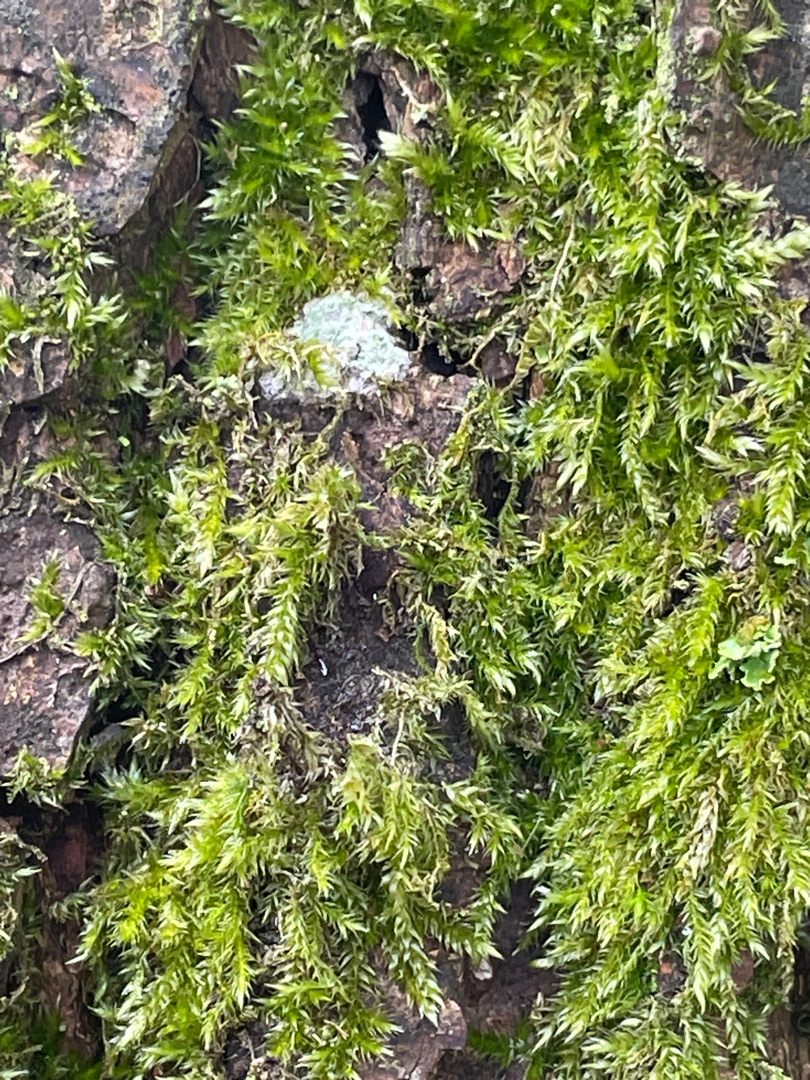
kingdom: Plantae
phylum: Bryophyta
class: Bryopsida
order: Hypnales
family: Hypnaceae
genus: Hypnum
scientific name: Hypnum
